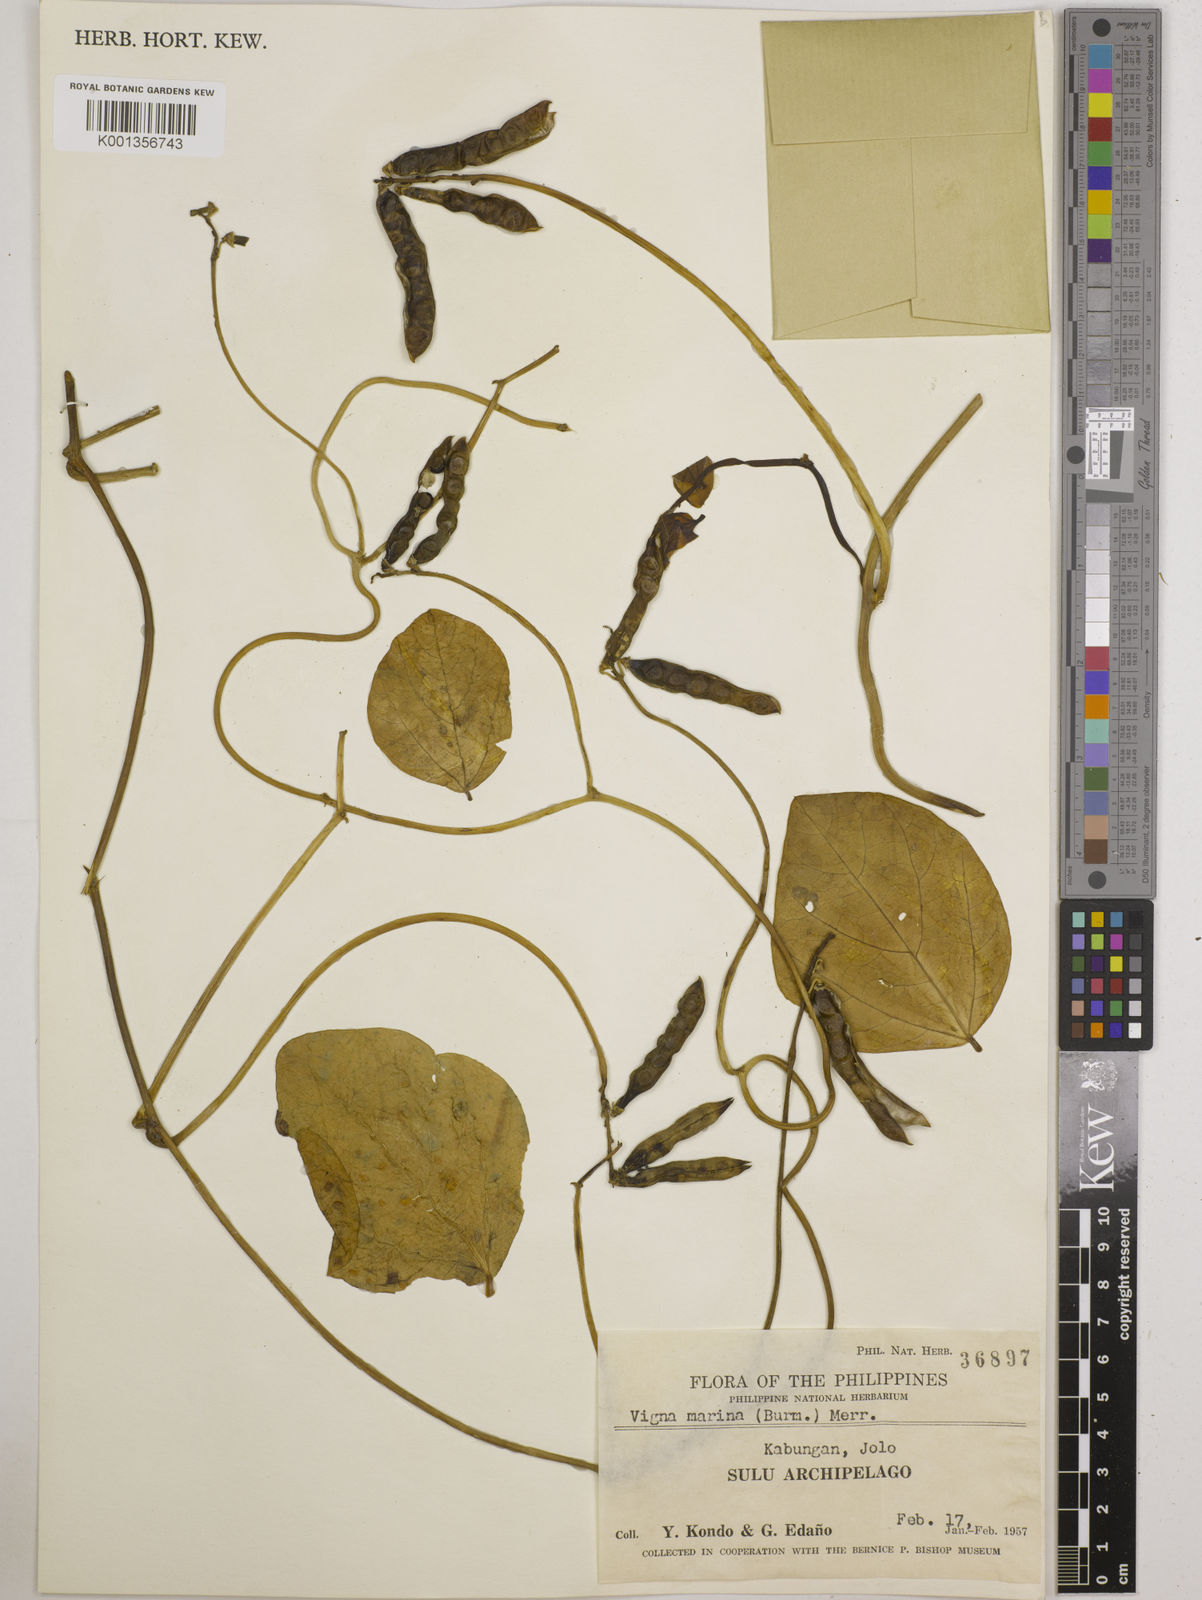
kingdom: Plantae
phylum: Tracheophyta
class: Magnoliopsida
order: Fabales
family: Fabaceae
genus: Vigna
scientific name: Vigna marina
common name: Dune-bean
